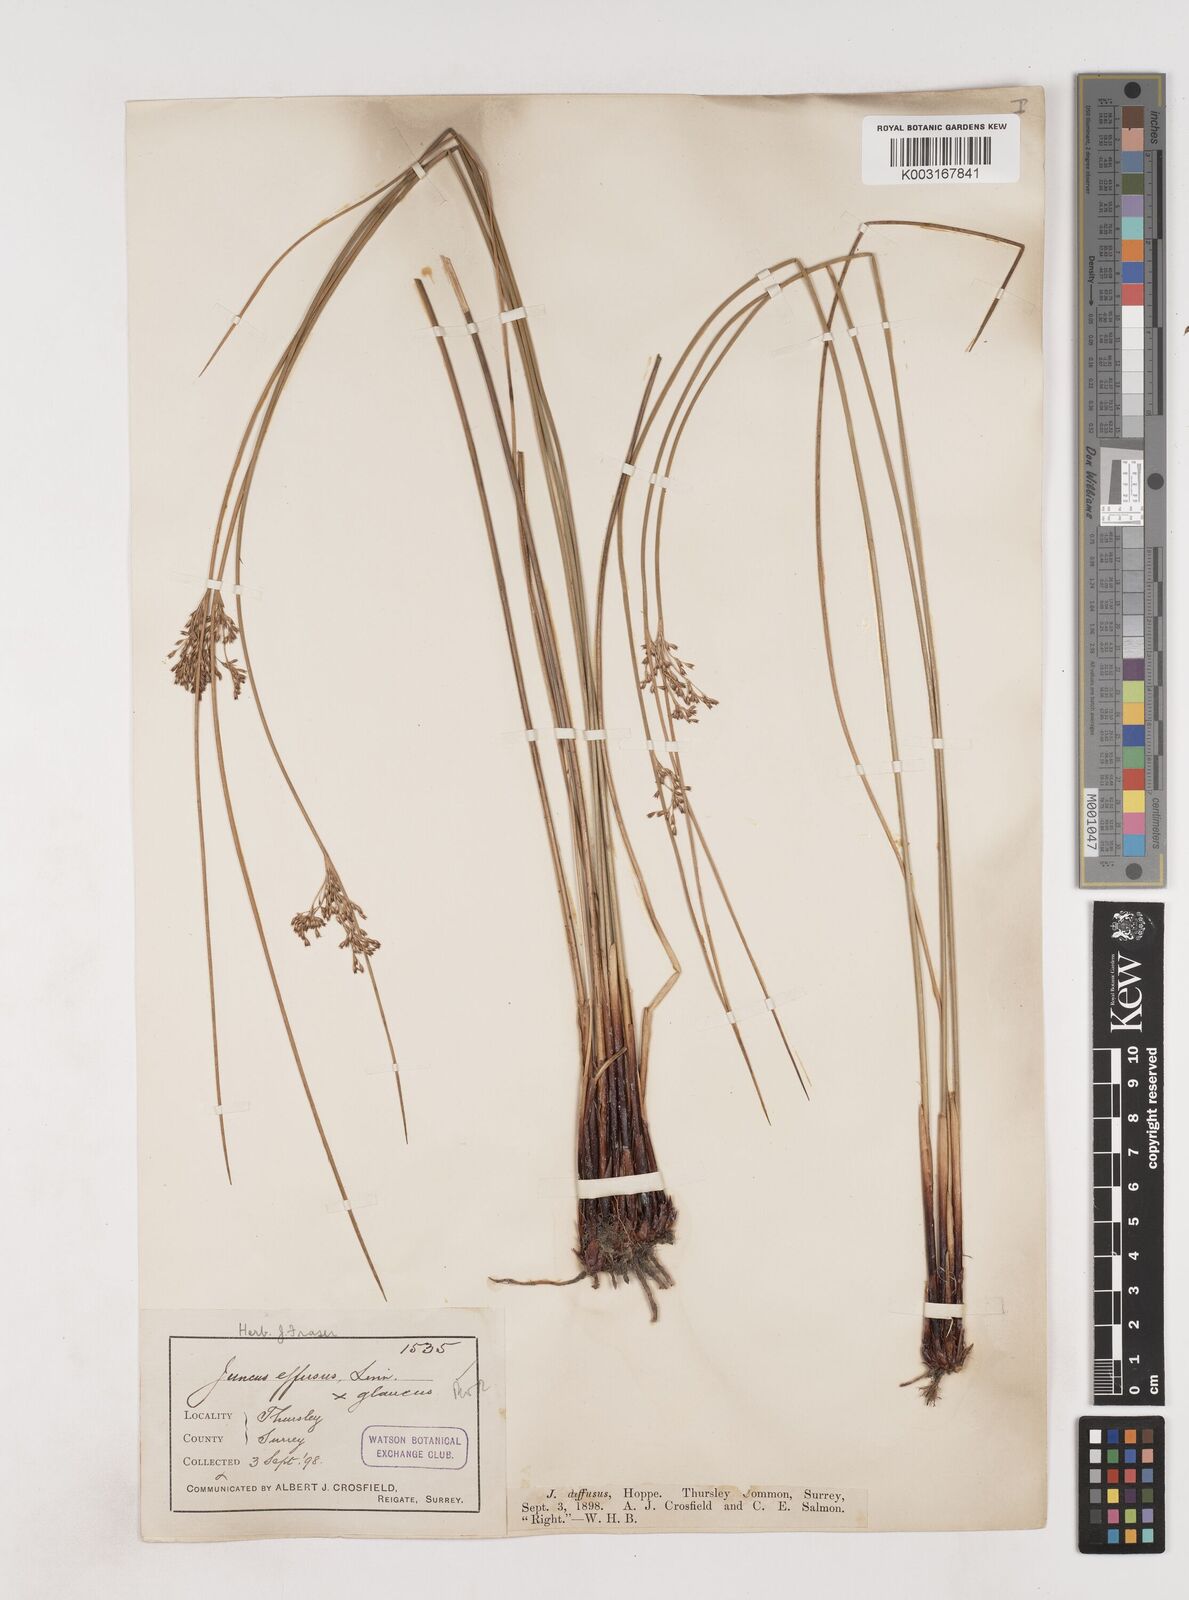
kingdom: Plantae
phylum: Tracheophyta
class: Liliopsida
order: Poales
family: Juncaceae
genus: Juncus
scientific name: Juncus effusus
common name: Soft rush
